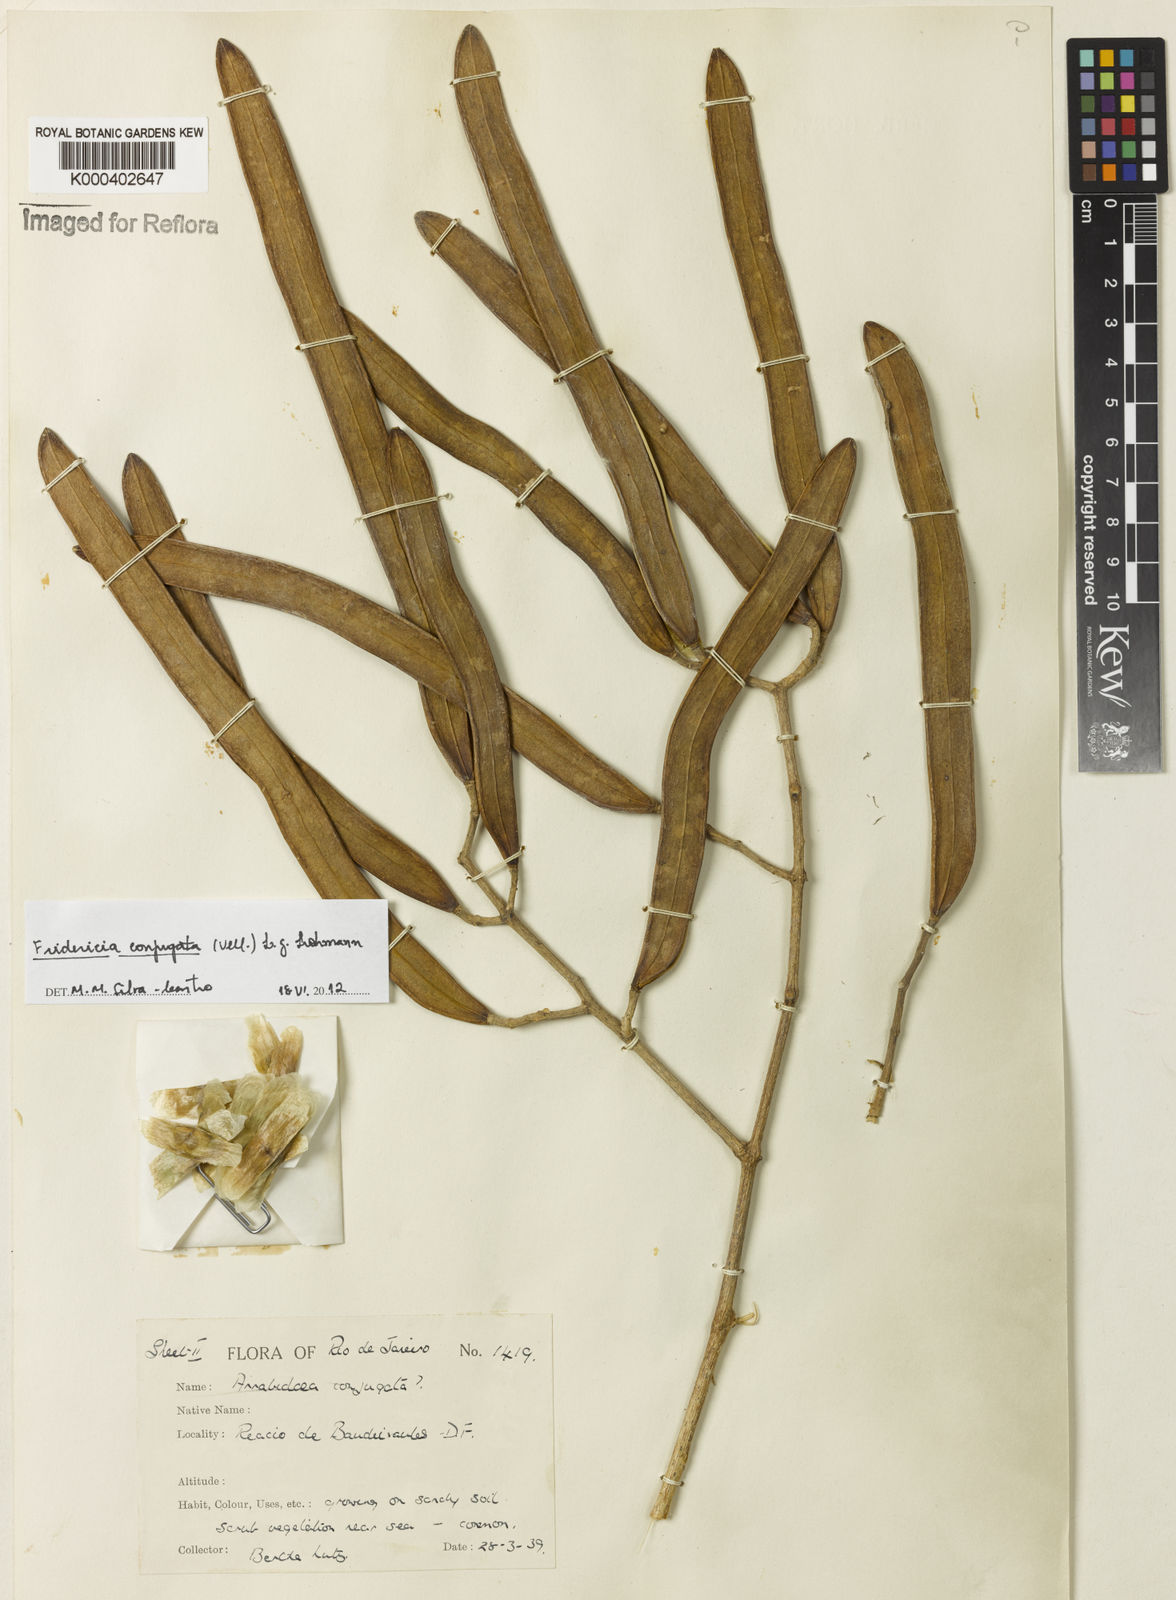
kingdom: Plantae
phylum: Tracheophyta
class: Magnoliopsida
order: Lamiales
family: Bignoniaceae
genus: Fridericia
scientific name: Fridericia conjugata
